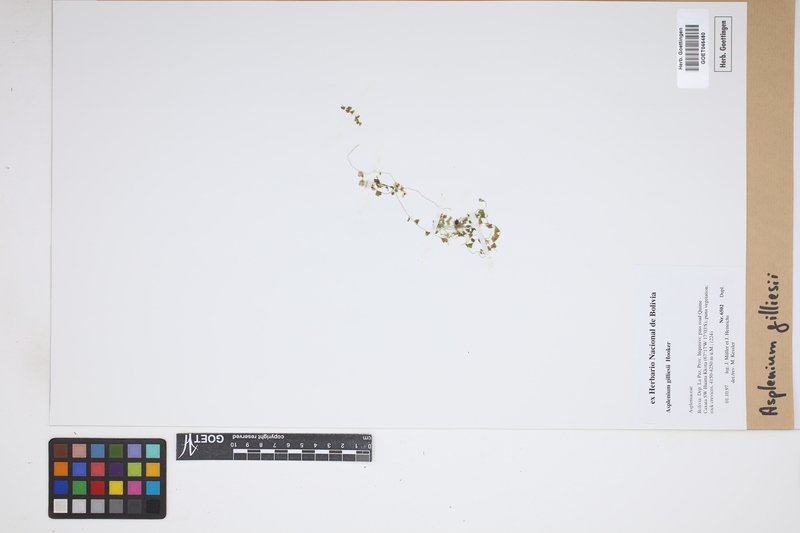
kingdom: Plantae
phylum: Tracheophyta
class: Polypodiopsida
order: Polypodiales
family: Aspleniaceae
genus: Asplenium
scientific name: Asplenium gilliesii
